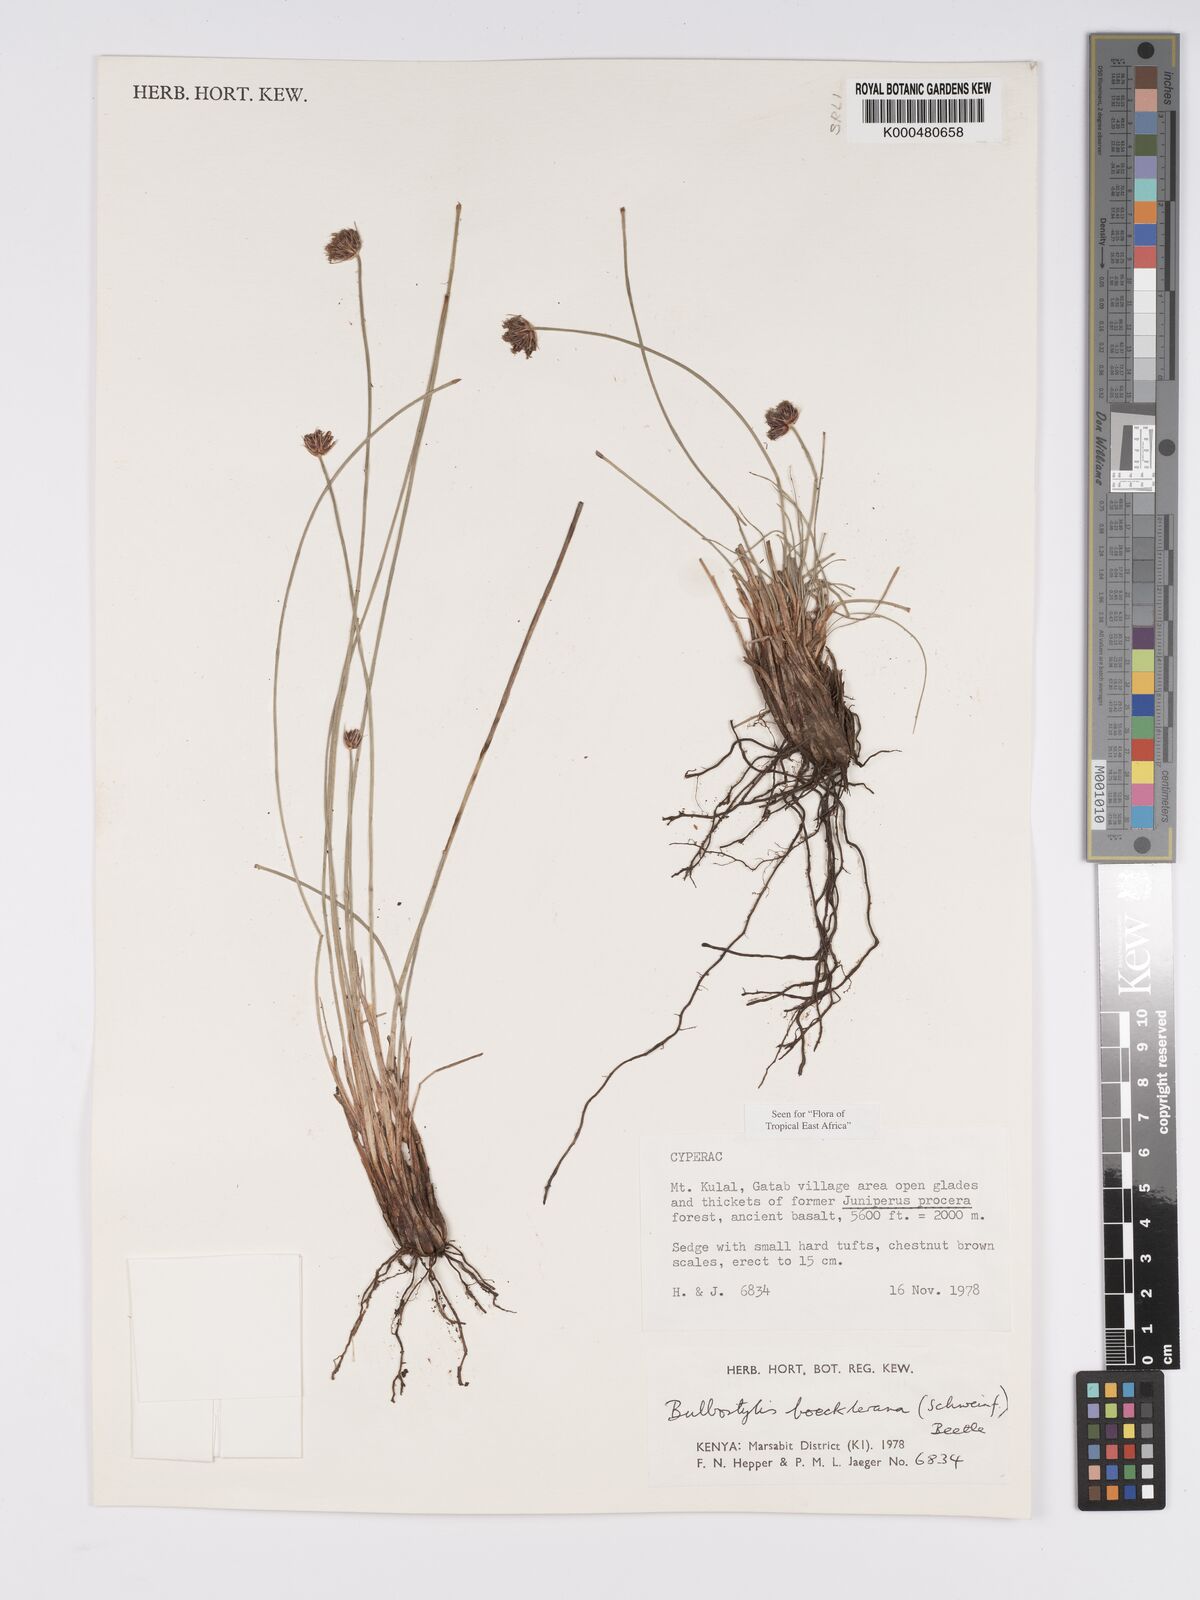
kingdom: Plantae
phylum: Tracheophyta
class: Liliopsida
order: Poales
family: Cyperaceae
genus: Bulbostylis
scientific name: Bulbostylis boeckeleriana
